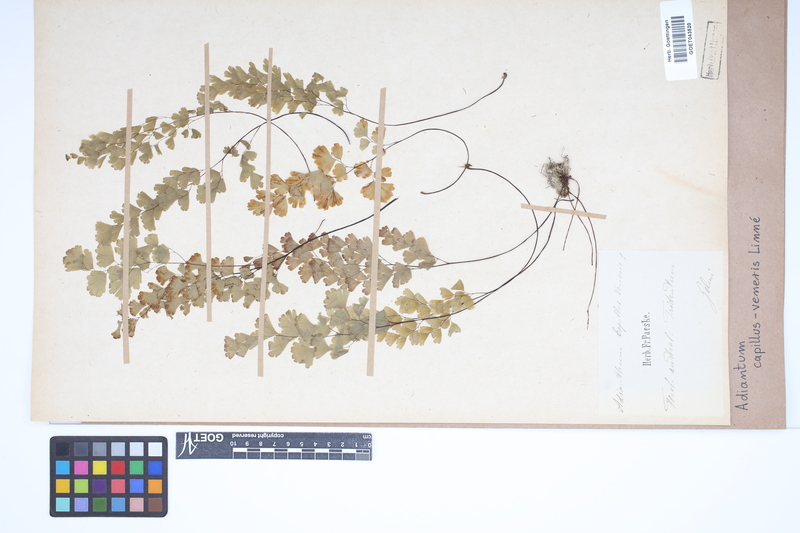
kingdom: Plantae
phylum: Tracheophyta
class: Polypodiopsida
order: Polypodiales
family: Pteridaceae
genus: Adiantum
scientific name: Adiantum capillus-veneris
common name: Maidenhair fern
